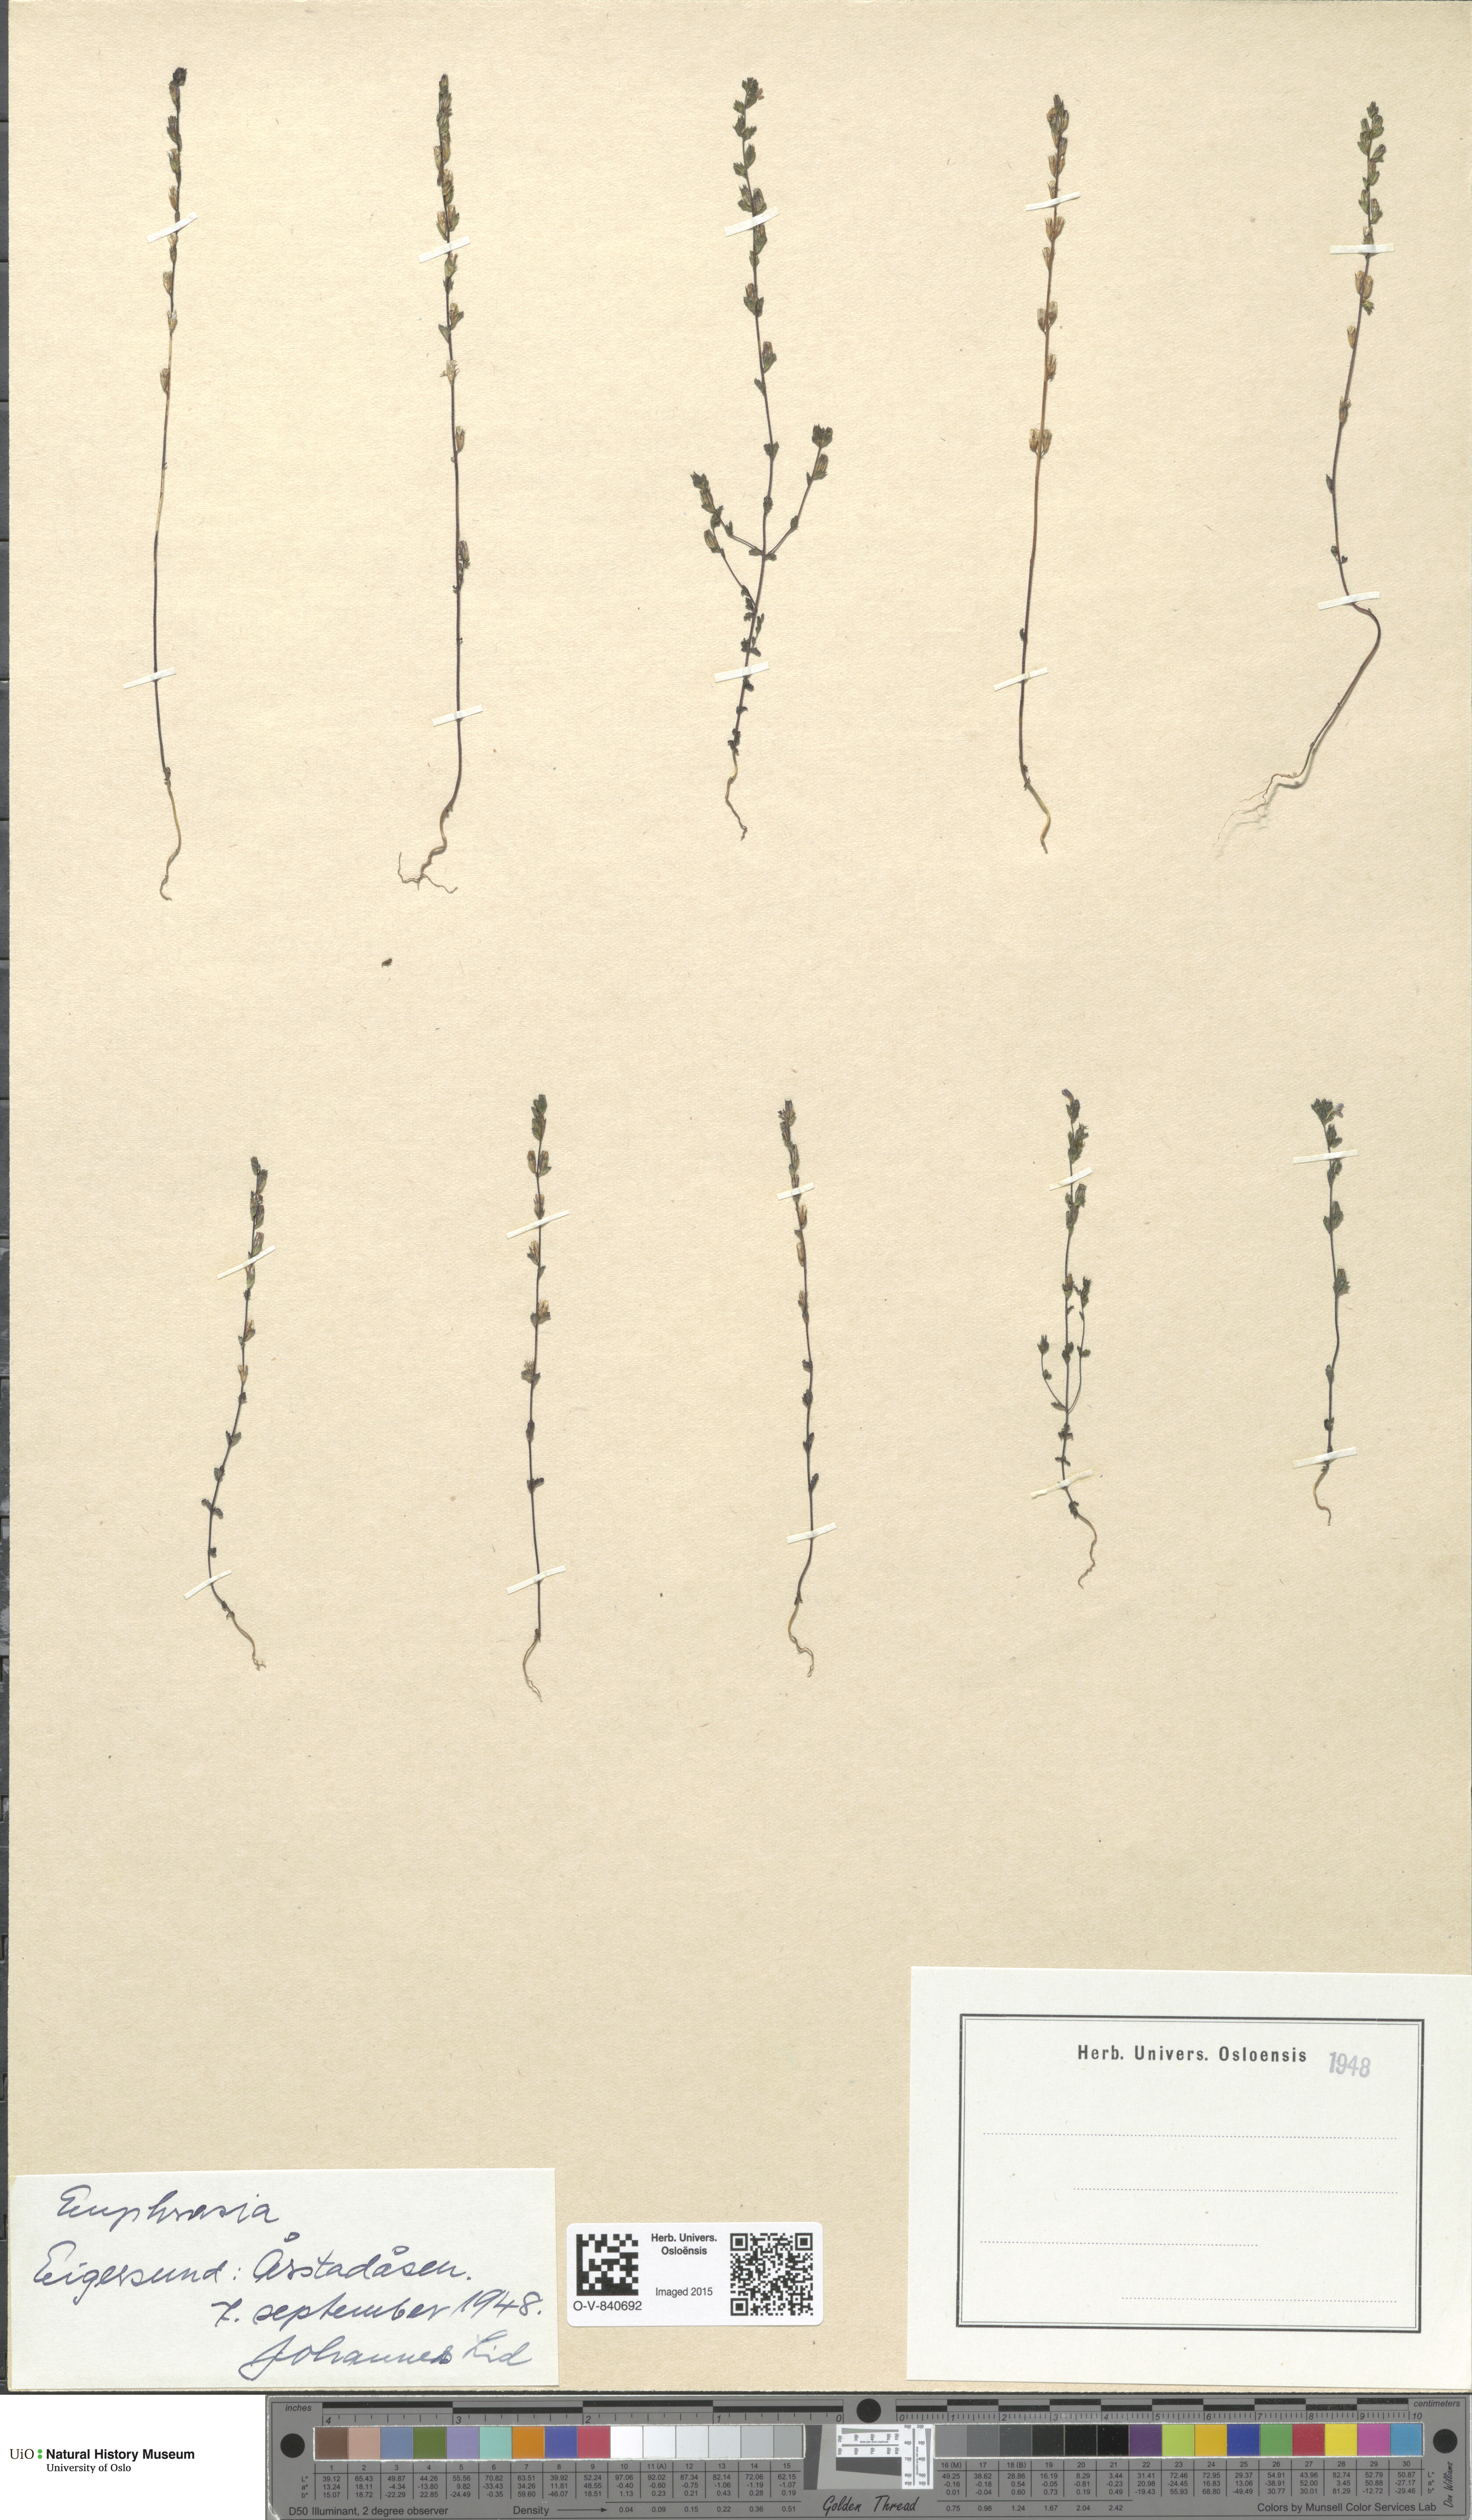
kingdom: Plantae
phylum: Tracheophyta
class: Magnoliopsida
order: Lamiales
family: Orobanchaceae
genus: Euphrasia
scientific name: Euphrasia
